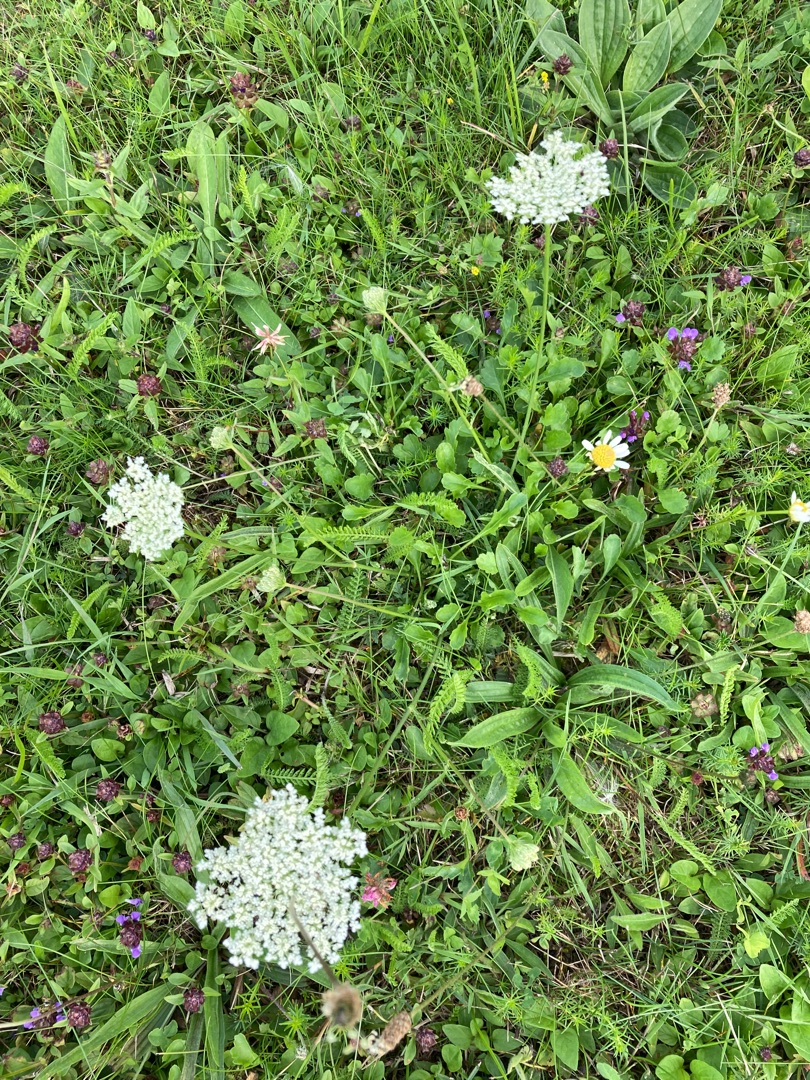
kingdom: Plantae
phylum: Tracheophyta
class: Magnoliopsida
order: Apiales
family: Apiaceae
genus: Daucus
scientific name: Daucus carota
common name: Gulerod
